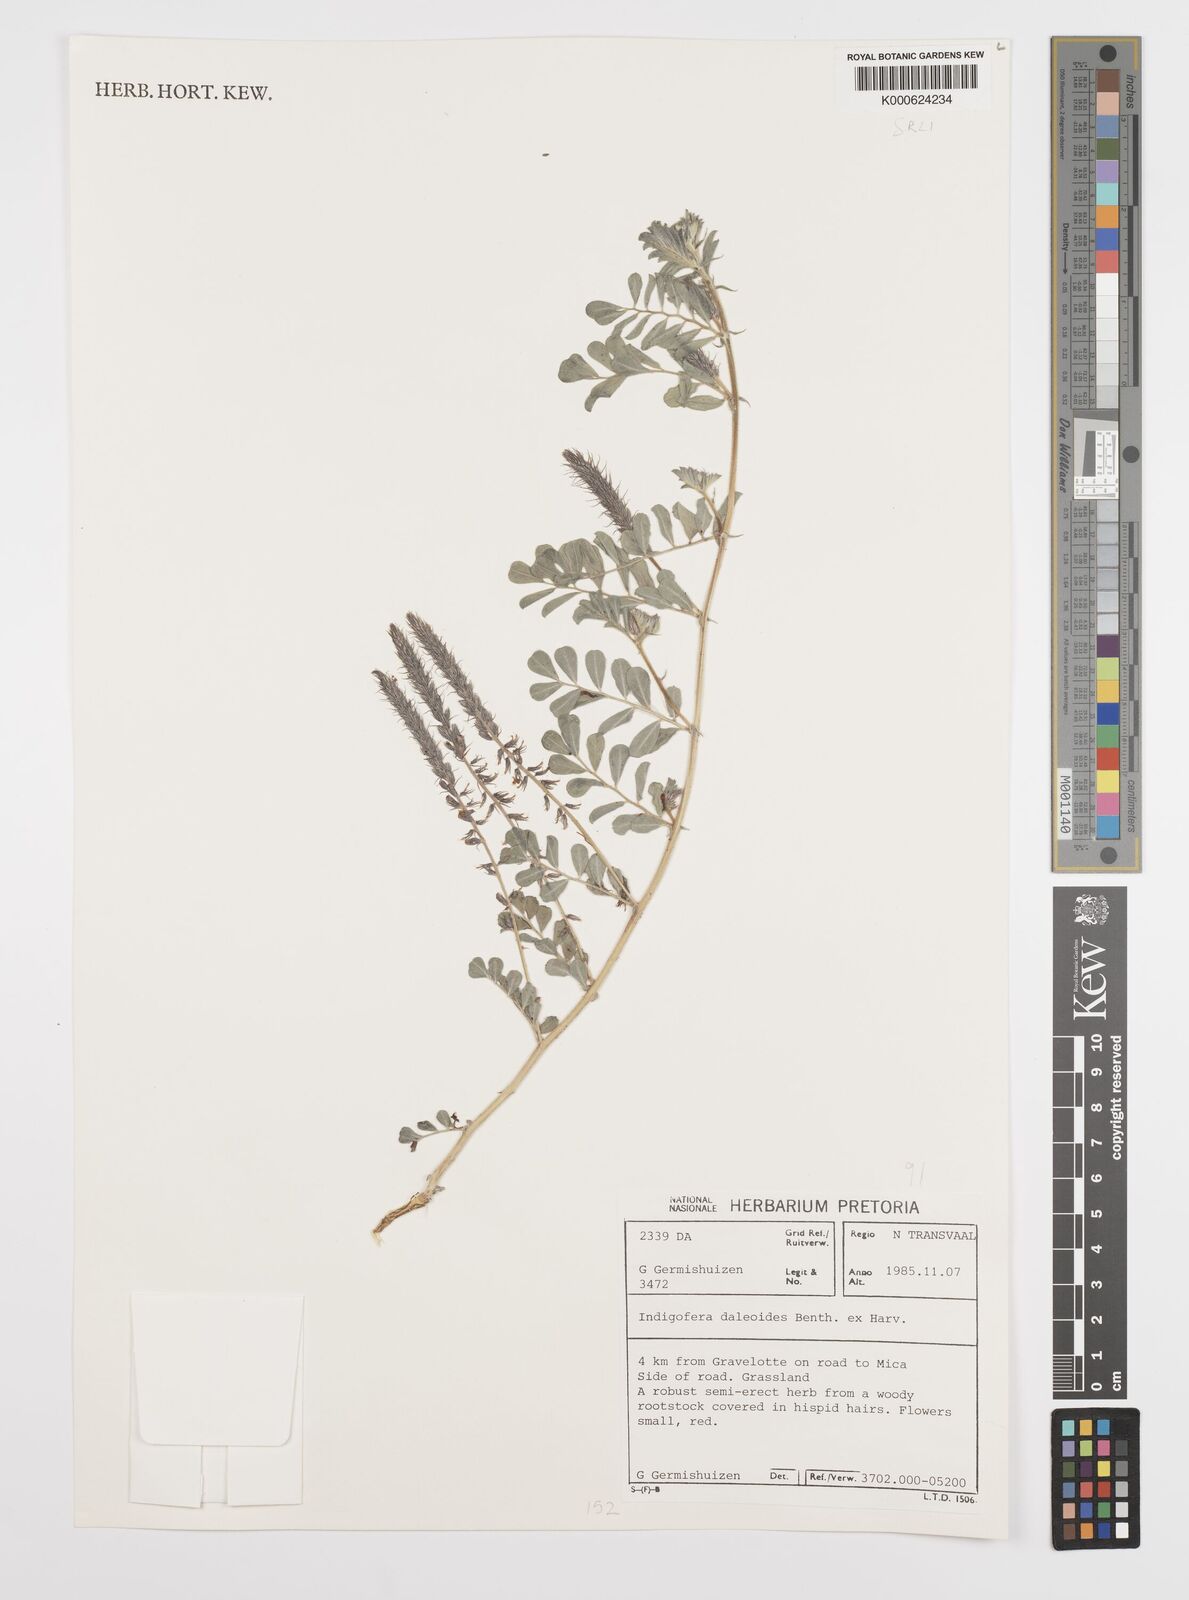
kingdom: Plantae
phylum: Tracheophyta
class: Magnoliopsida
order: Fabales
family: Fabaceae
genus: Indigofera
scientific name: Indigofera daleoides
